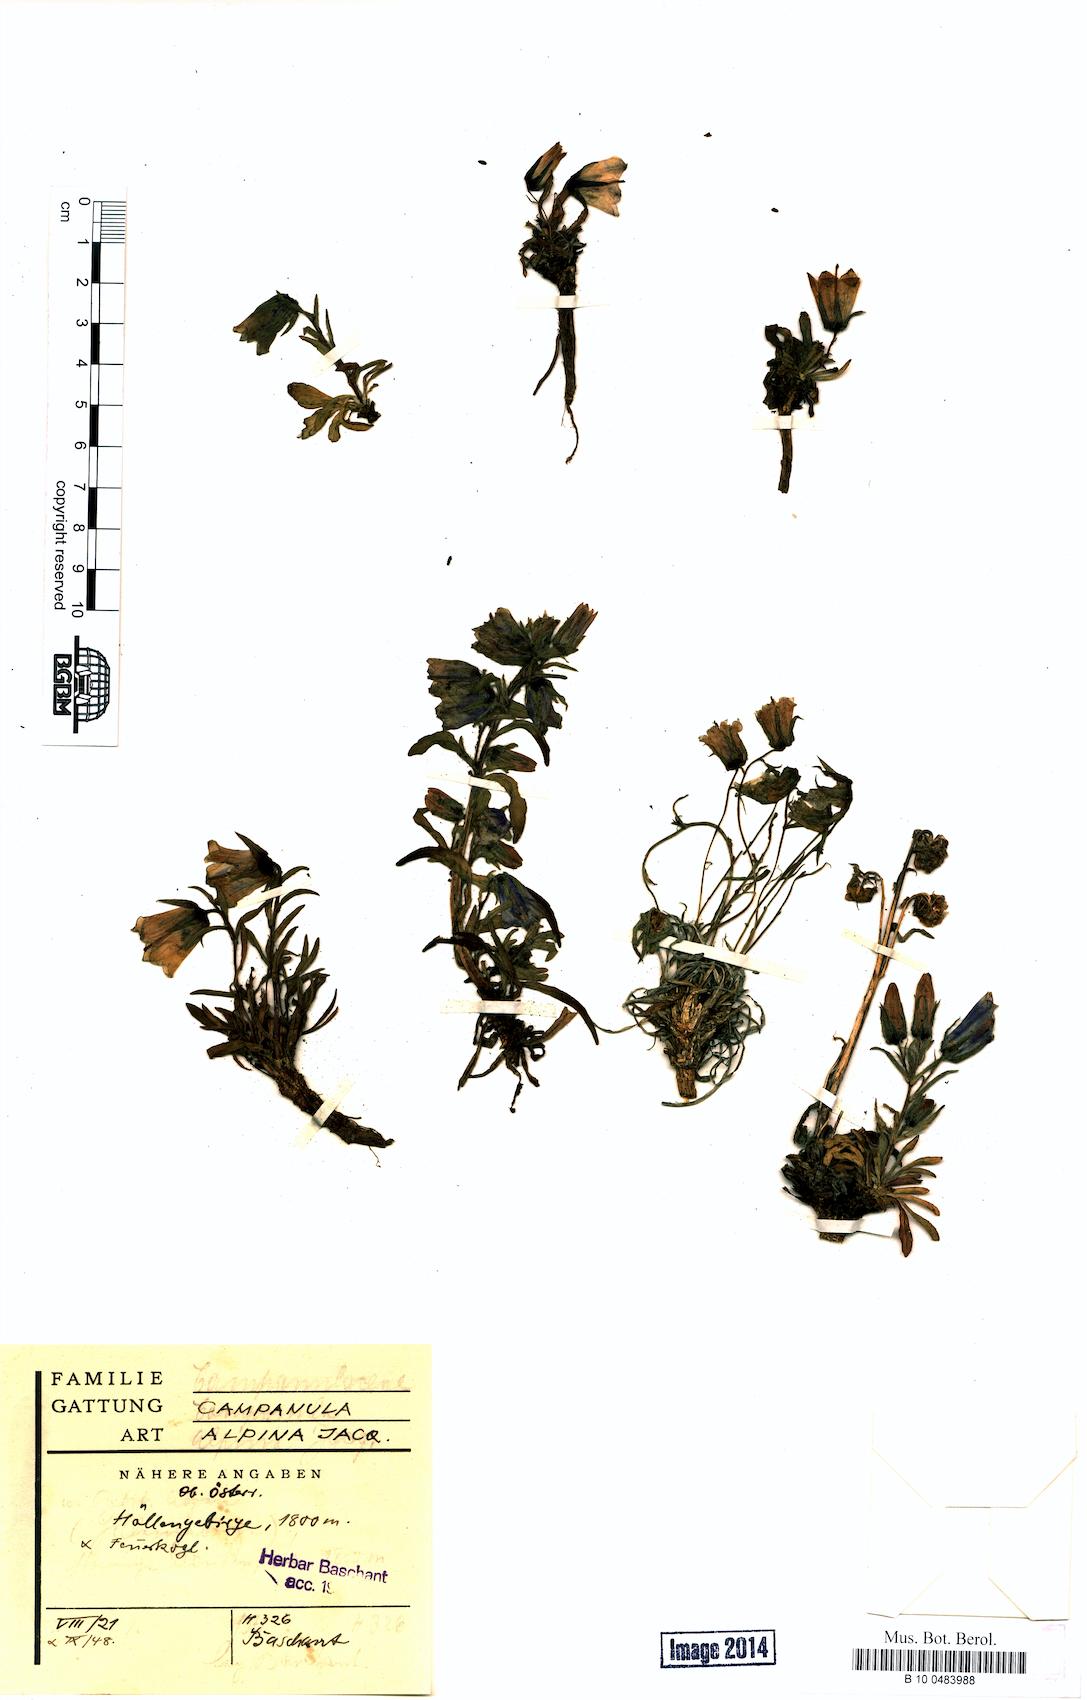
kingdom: Plantae
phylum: Tracheophyta
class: Magnoliopsida
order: Asterales
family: Campanulaceae
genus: Campanula
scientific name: Campanula alpina
